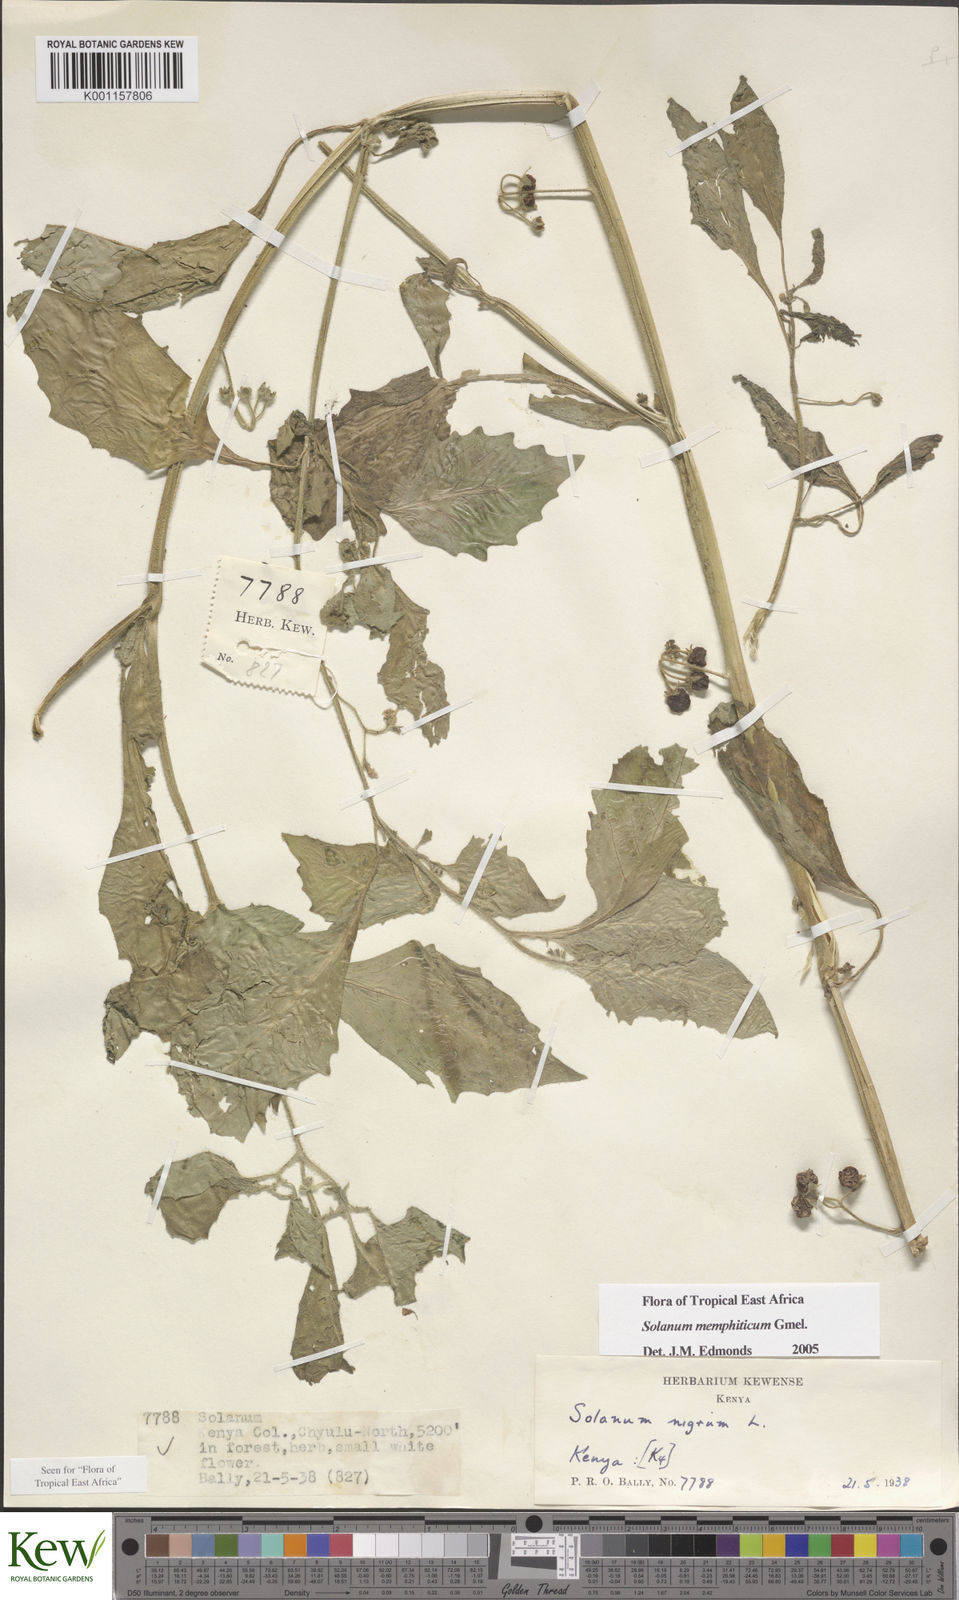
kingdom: Plantae
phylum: Tracheophyta
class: Magnoliopsida
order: Solanales
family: Solanaceae
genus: Solanum
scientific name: Solanum memphiticum
